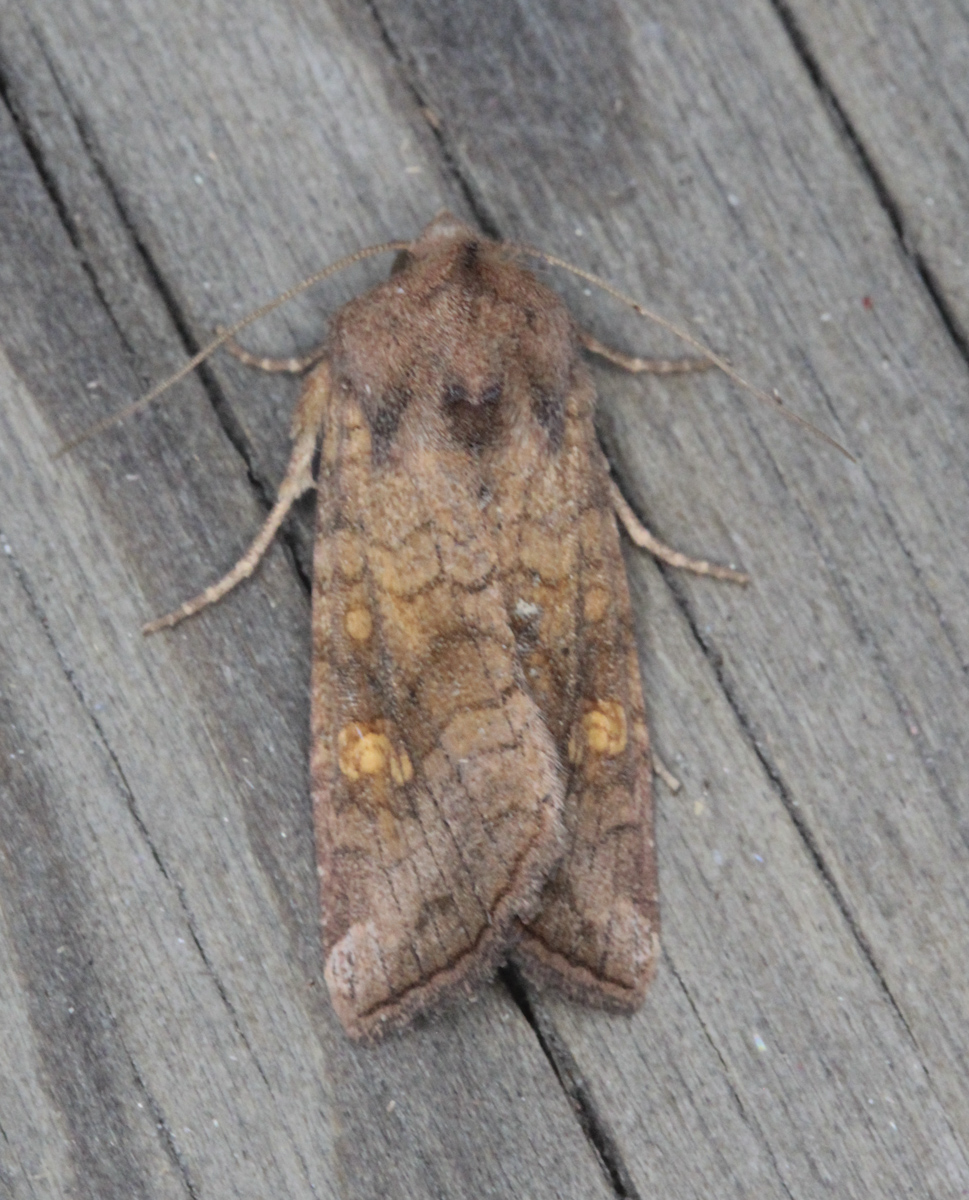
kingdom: Animalia
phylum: Arthropoda
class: Insecta
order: Lepidoptera
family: Noctuidae
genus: Amphipoea
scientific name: Amphipoea oculea
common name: Ear moth
